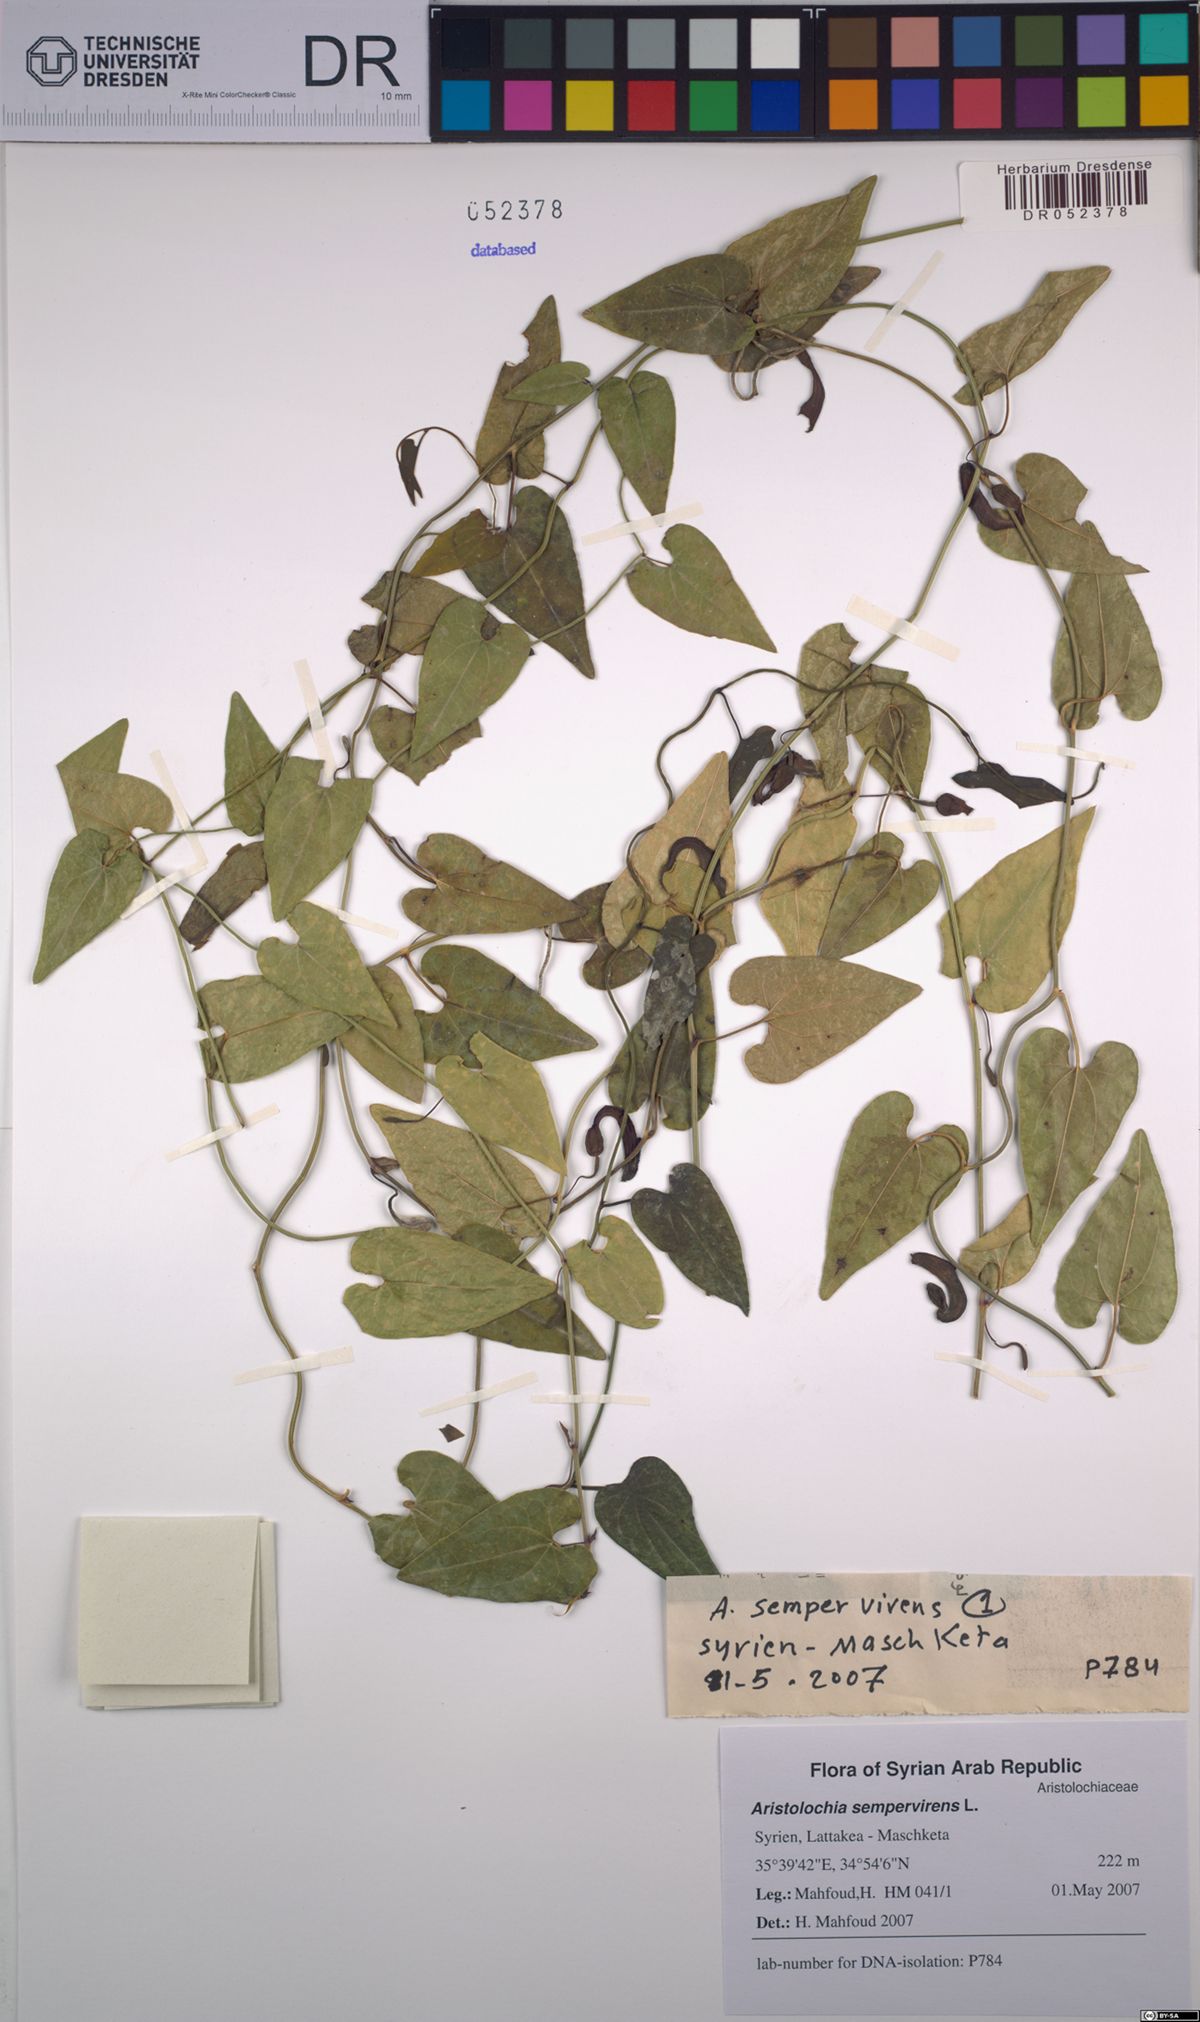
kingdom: Plantae
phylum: Tracheophyta
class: Magnoliopsida
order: Piperales
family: Aristolochiaceae
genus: Aristolochia
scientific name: Aristolochia sempervirens
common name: Long birthwort
